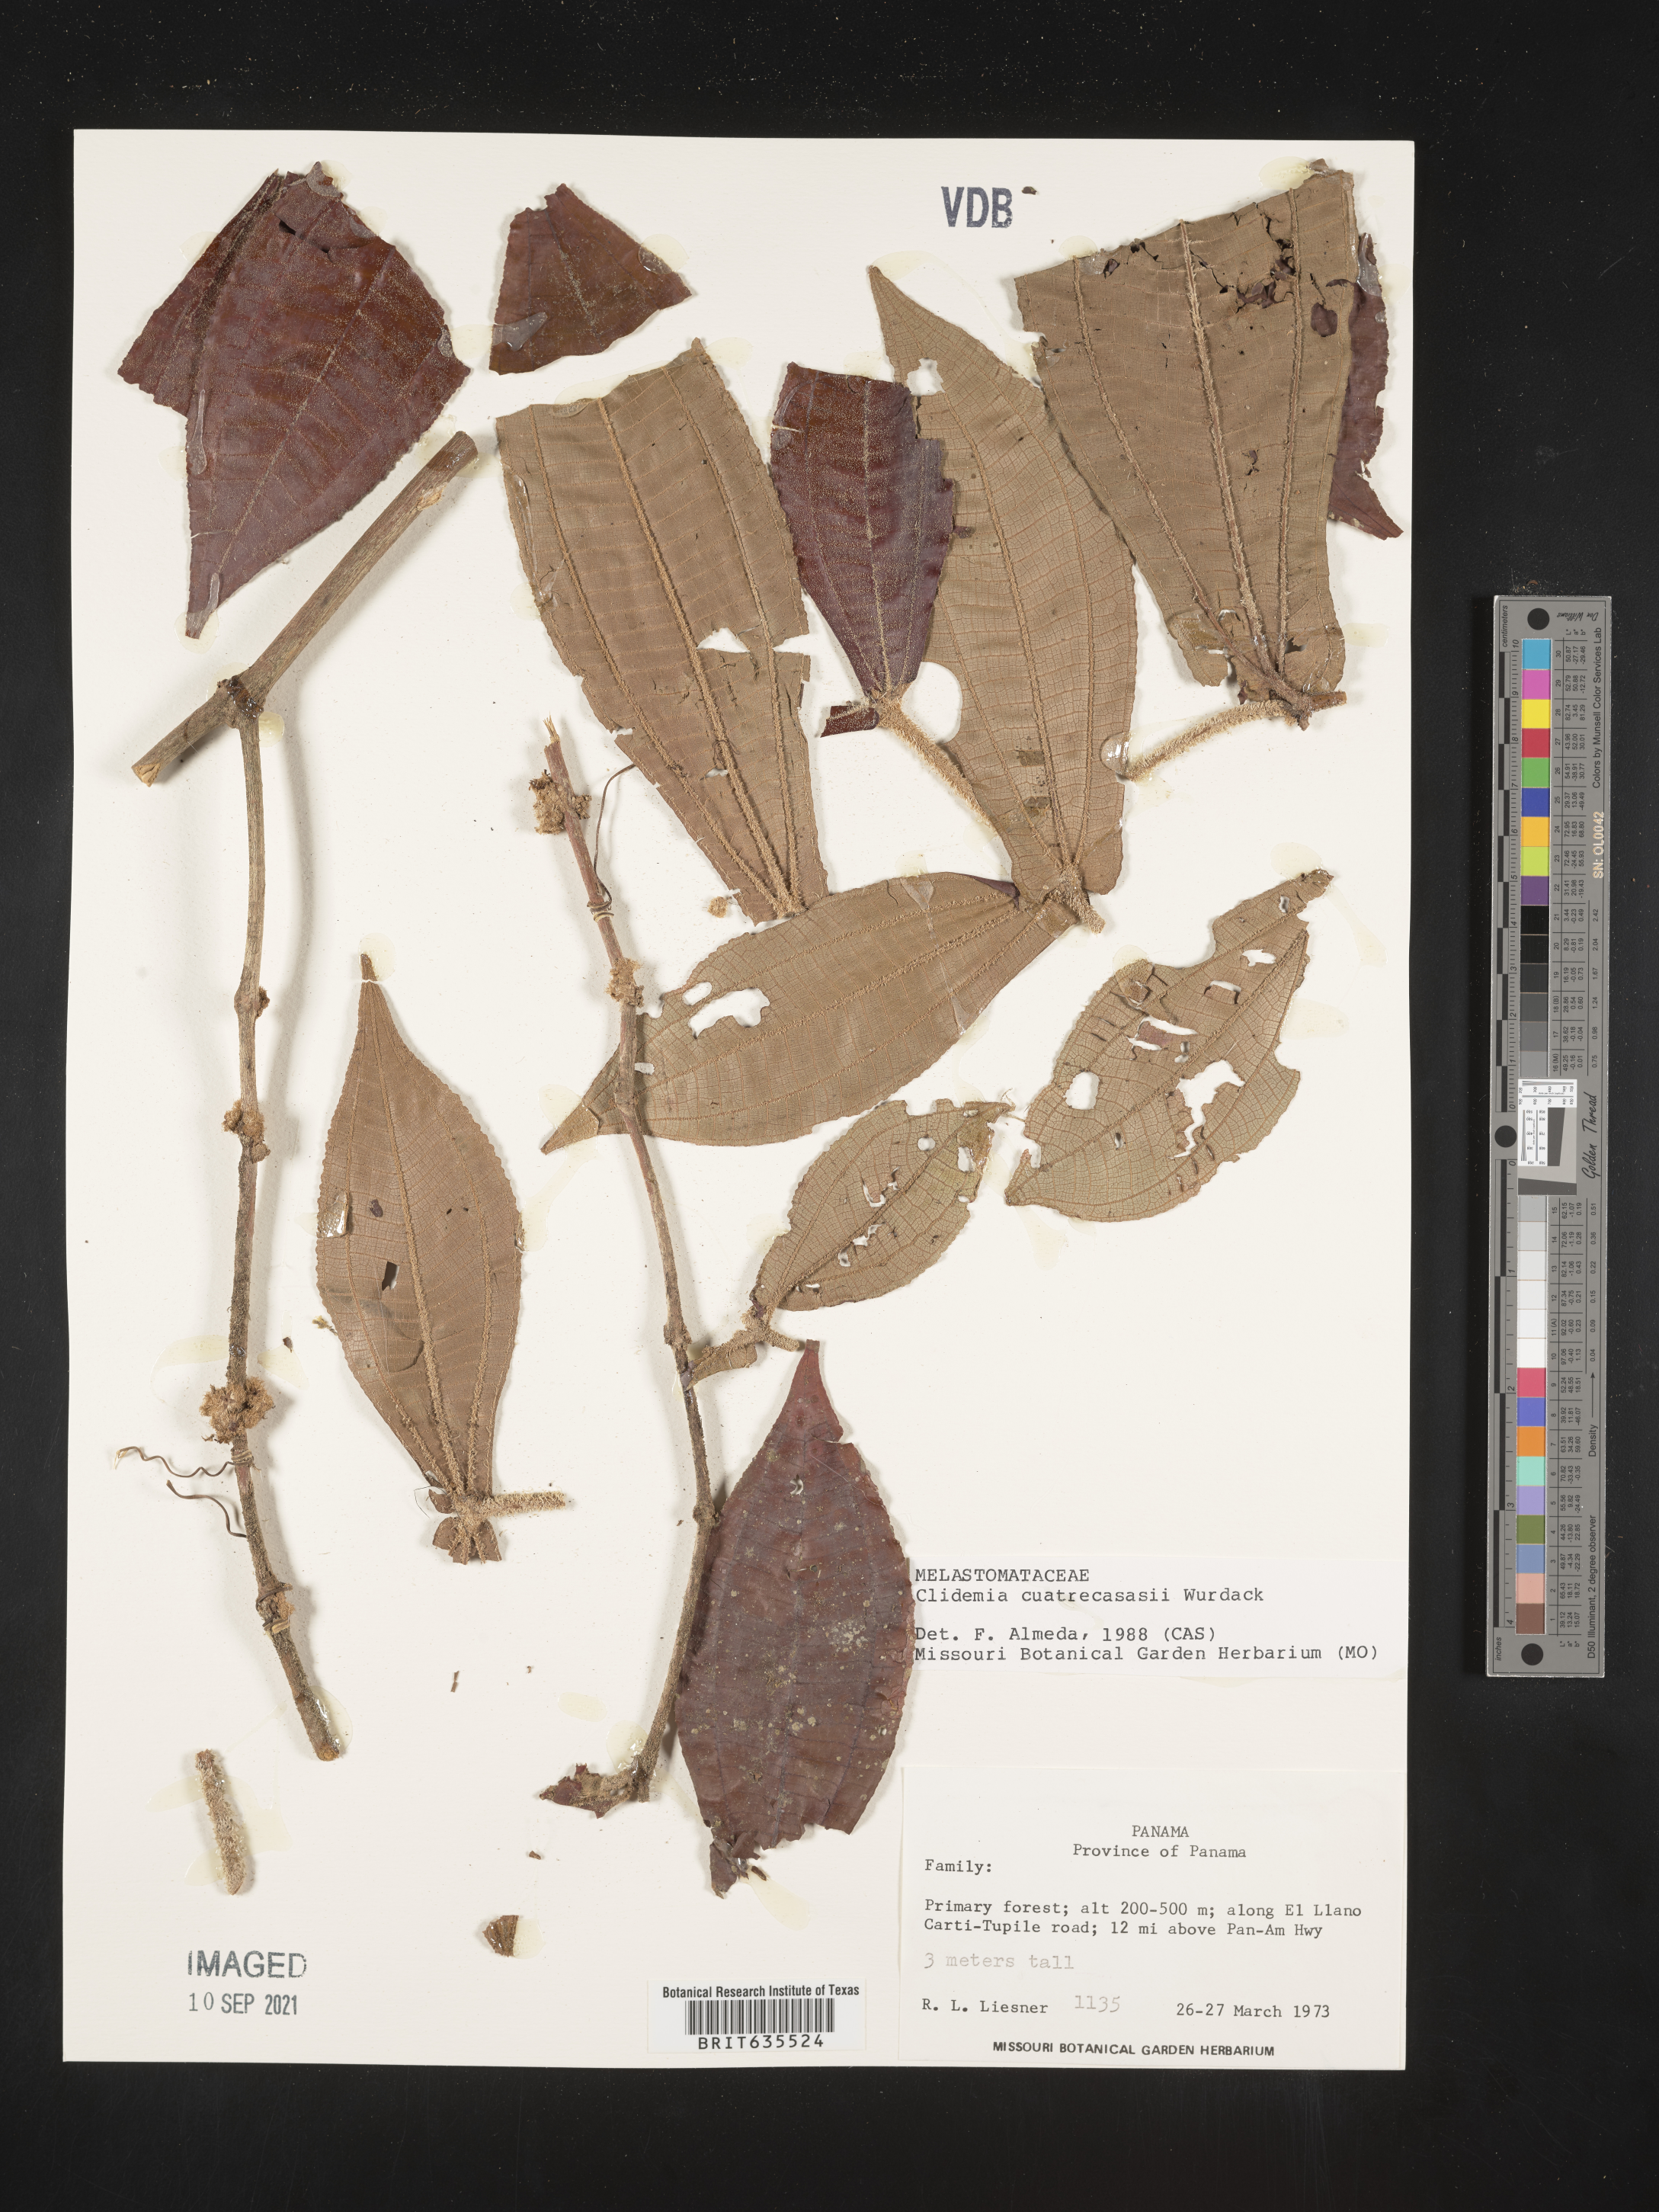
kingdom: Plantae
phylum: Tracheophyta
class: Magnoliopsida
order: Myrtales
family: Melastomataceae
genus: Miconia
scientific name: Miconia
